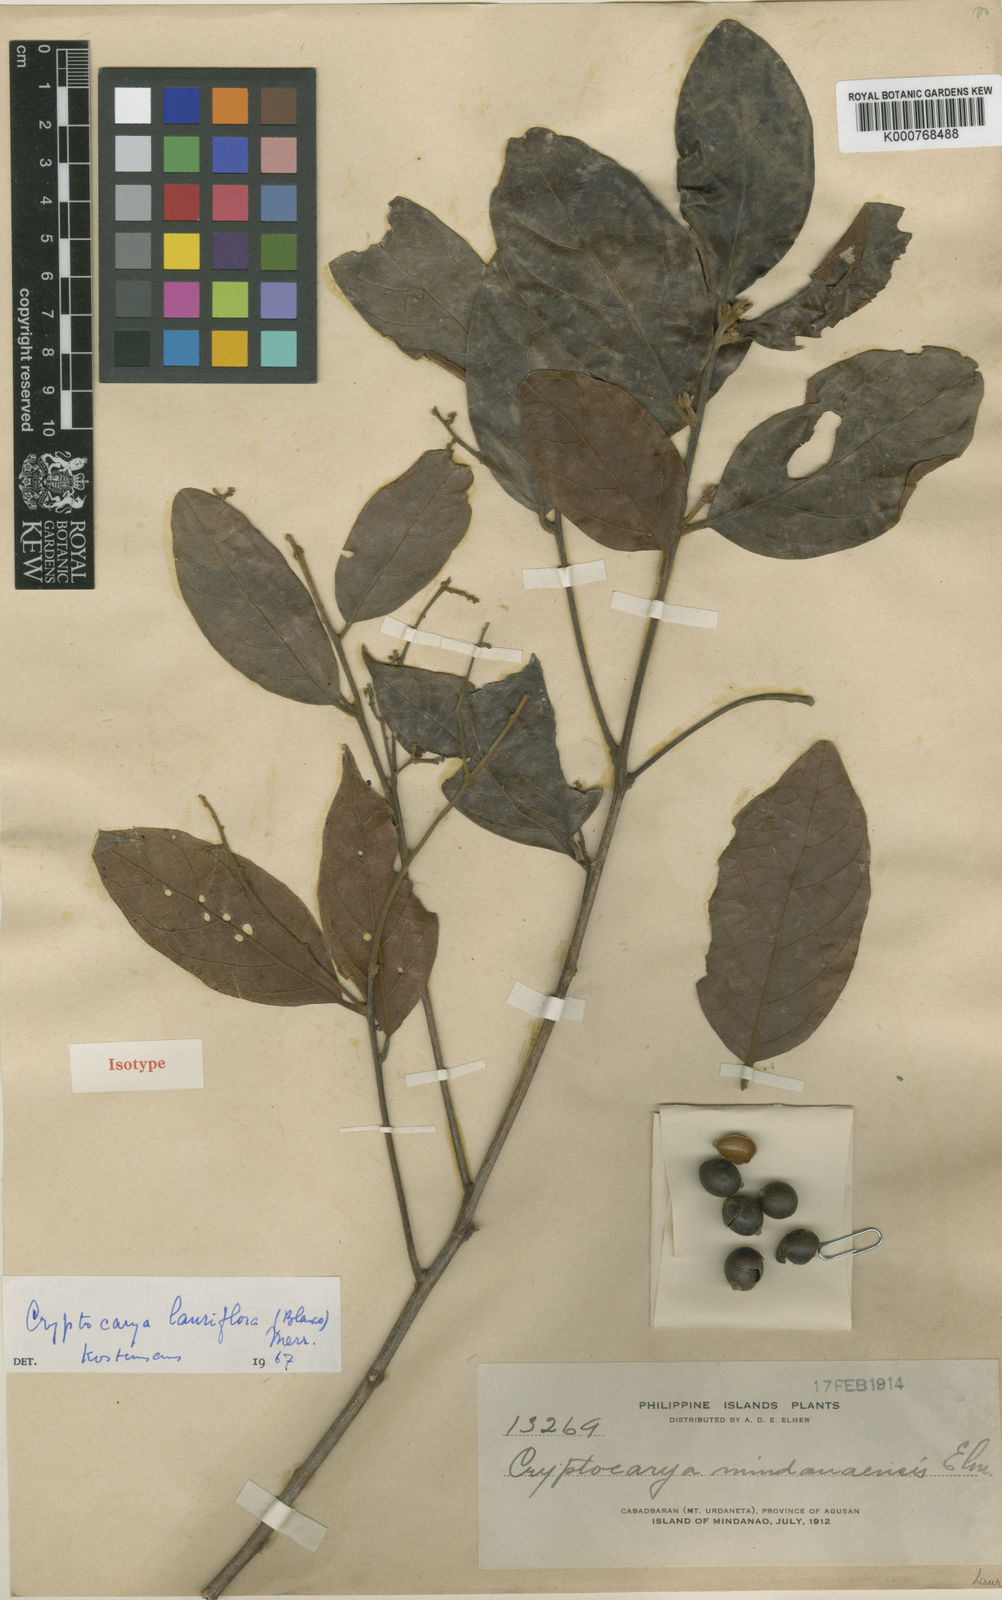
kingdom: Plantae
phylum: Tracheophyta
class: Magnoliopsida
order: Laurales
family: Lauraceae
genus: Cryptocarya
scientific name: Cryptocarya mindanaensis
